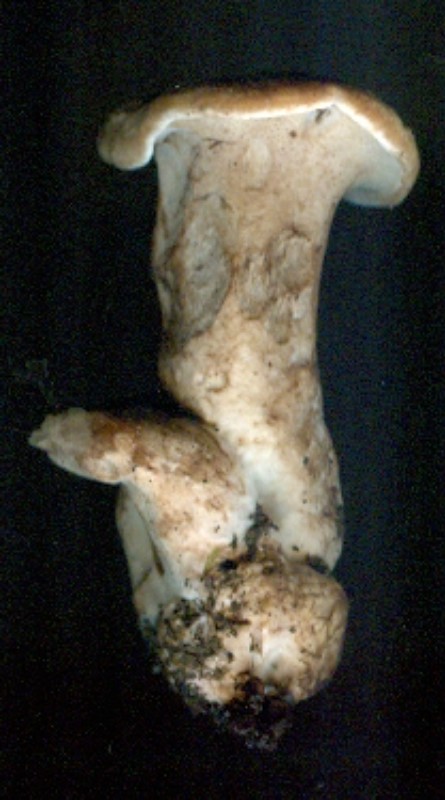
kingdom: Fungi
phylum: Basidiomycota
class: Agaricomycetes
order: Thelephorales
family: Bankeraceae
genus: Sarcodon
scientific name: Sarcodon
